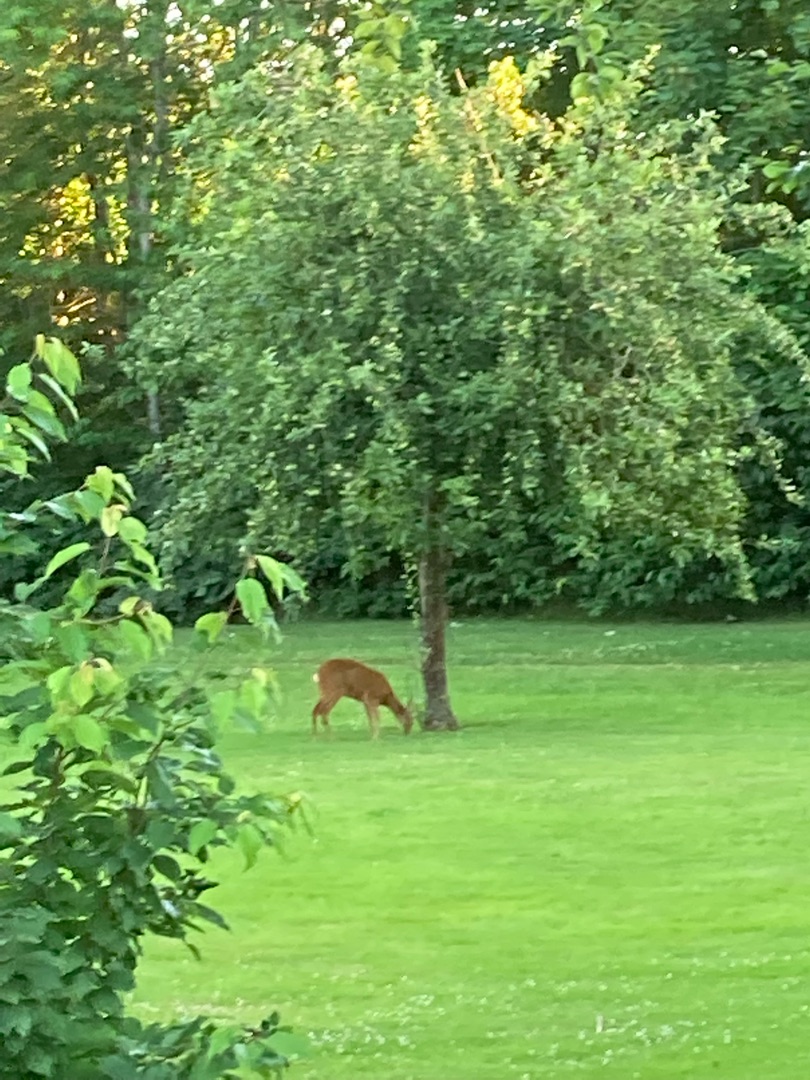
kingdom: Animalia
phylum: Chordata
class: Mammalia
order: Artiodactyla
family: Cervidae
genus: Capreolus
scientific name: Capreolus capreolus
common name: Rådyr
